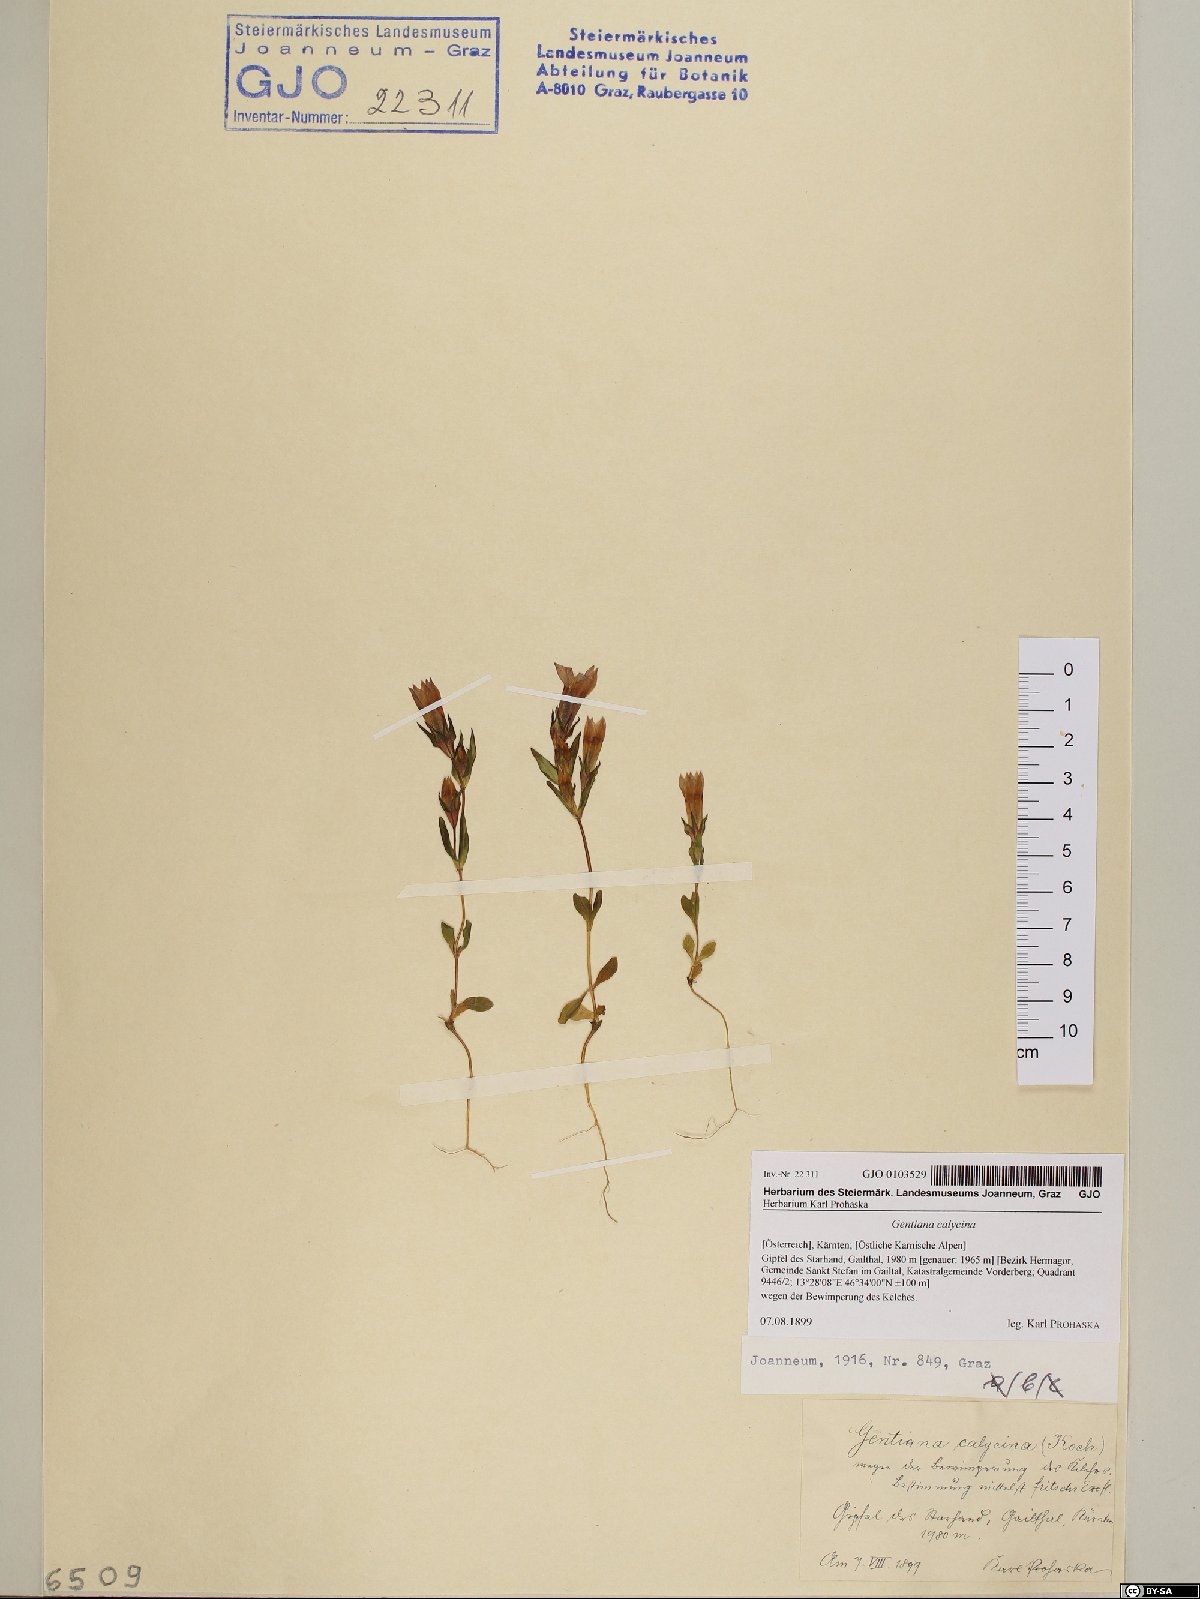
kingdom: Plantae
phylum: Tracheophyta
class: Magnoliopsida
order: Gentianales
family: Gentianaceae
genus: Gentianella
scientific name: Gentianella germanica
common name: Chiltern-gentian
